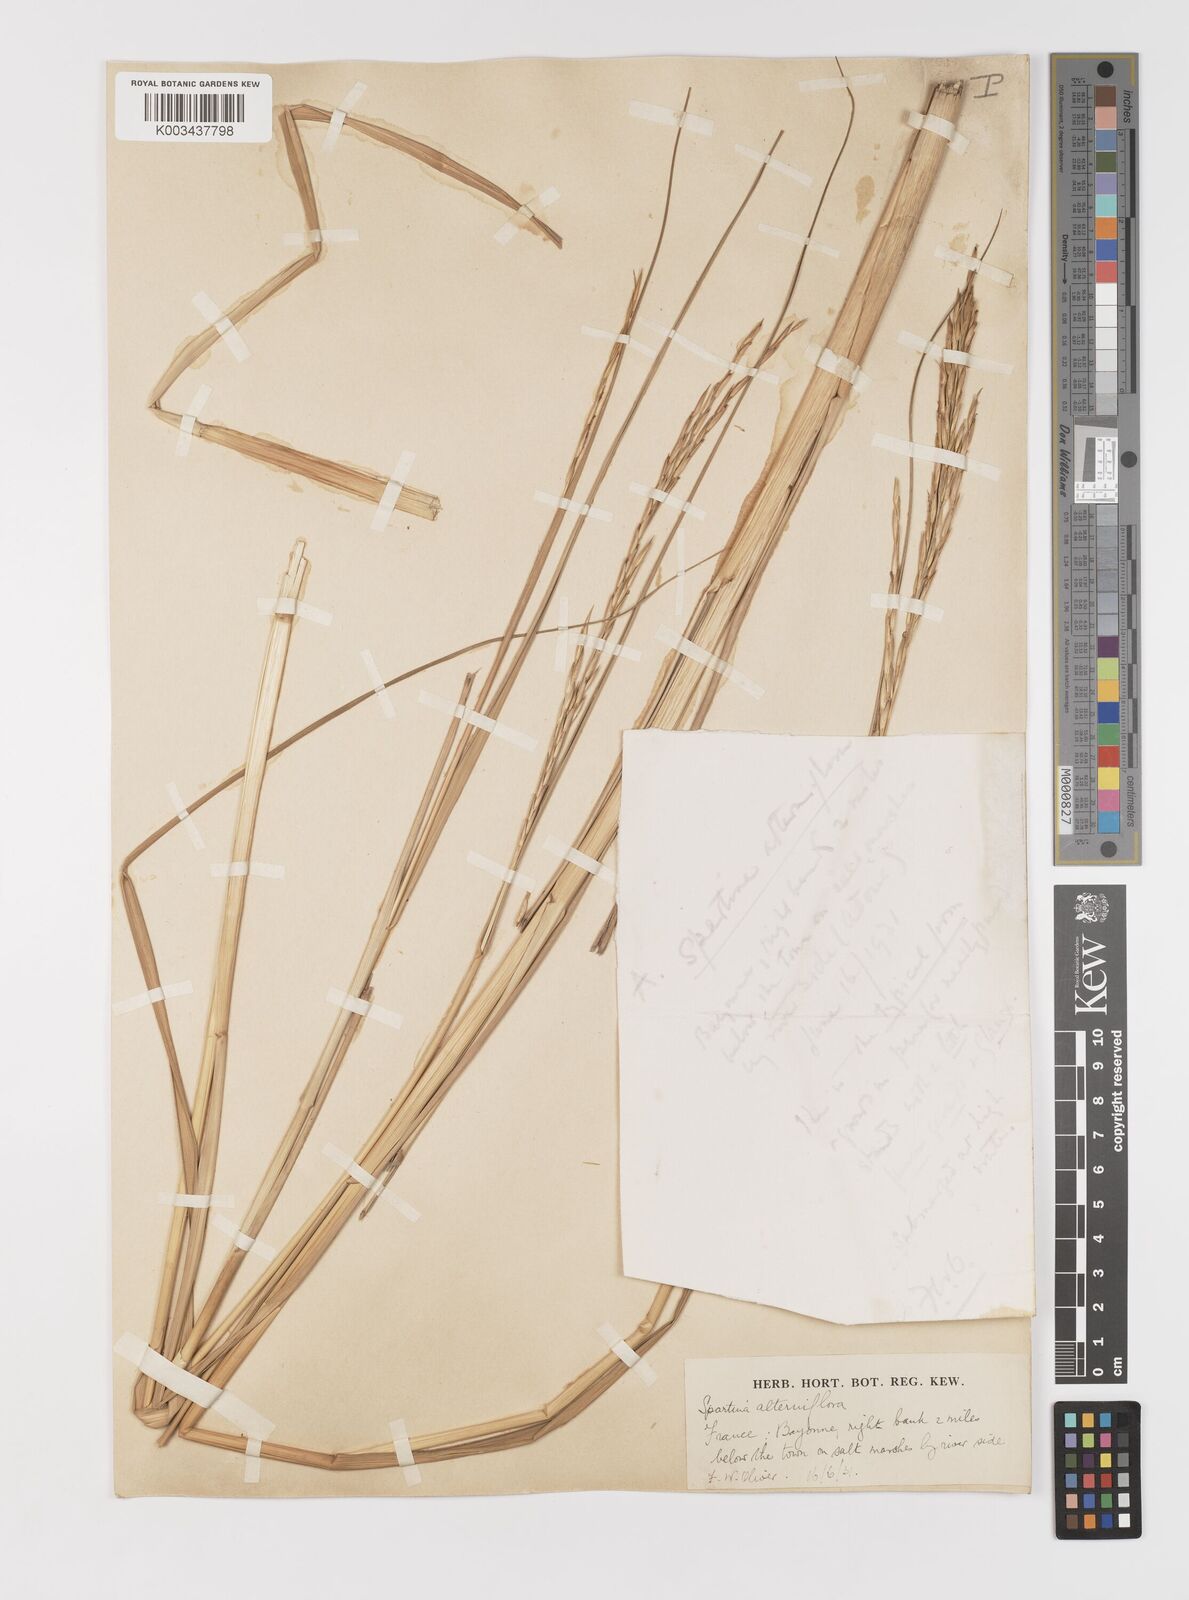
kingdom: Plantae
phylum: Tracheophyta
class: Liliopsida
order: Poales
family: Poaceae
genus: Sporobolus
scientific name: Sporobolus alterniflorus
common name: Atlantic cordgrass
